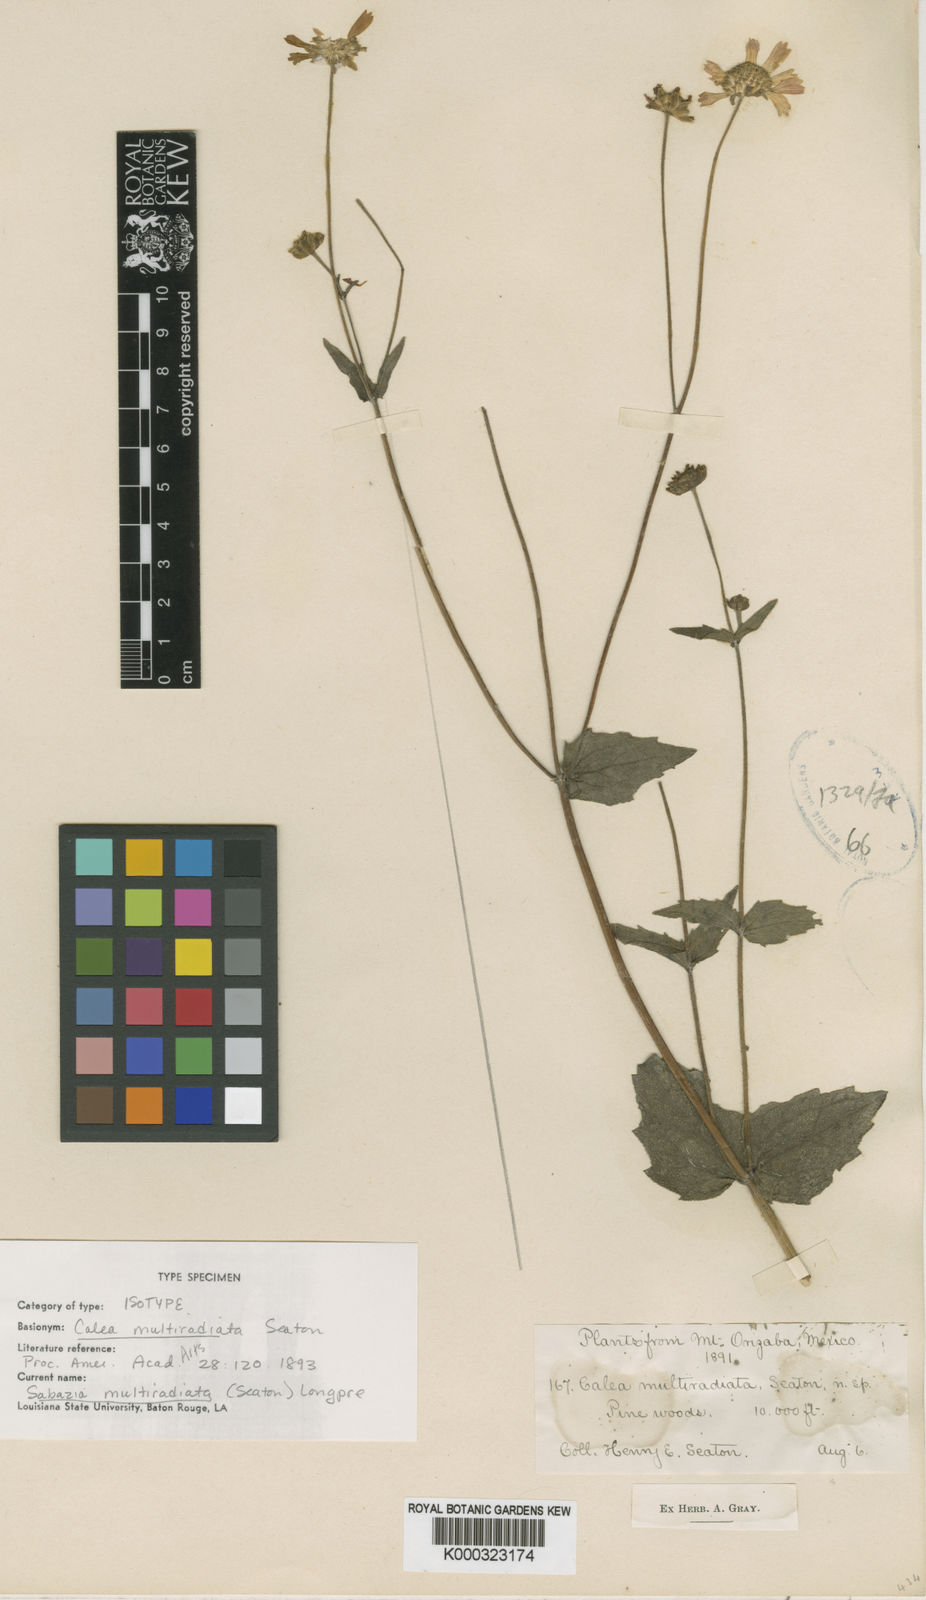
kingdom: Plantae
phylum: Tracheophyta
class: Magnoliopsida
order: Asterales
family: Asteraceae
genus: Sabazia
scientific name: Sabazia multiradiata
